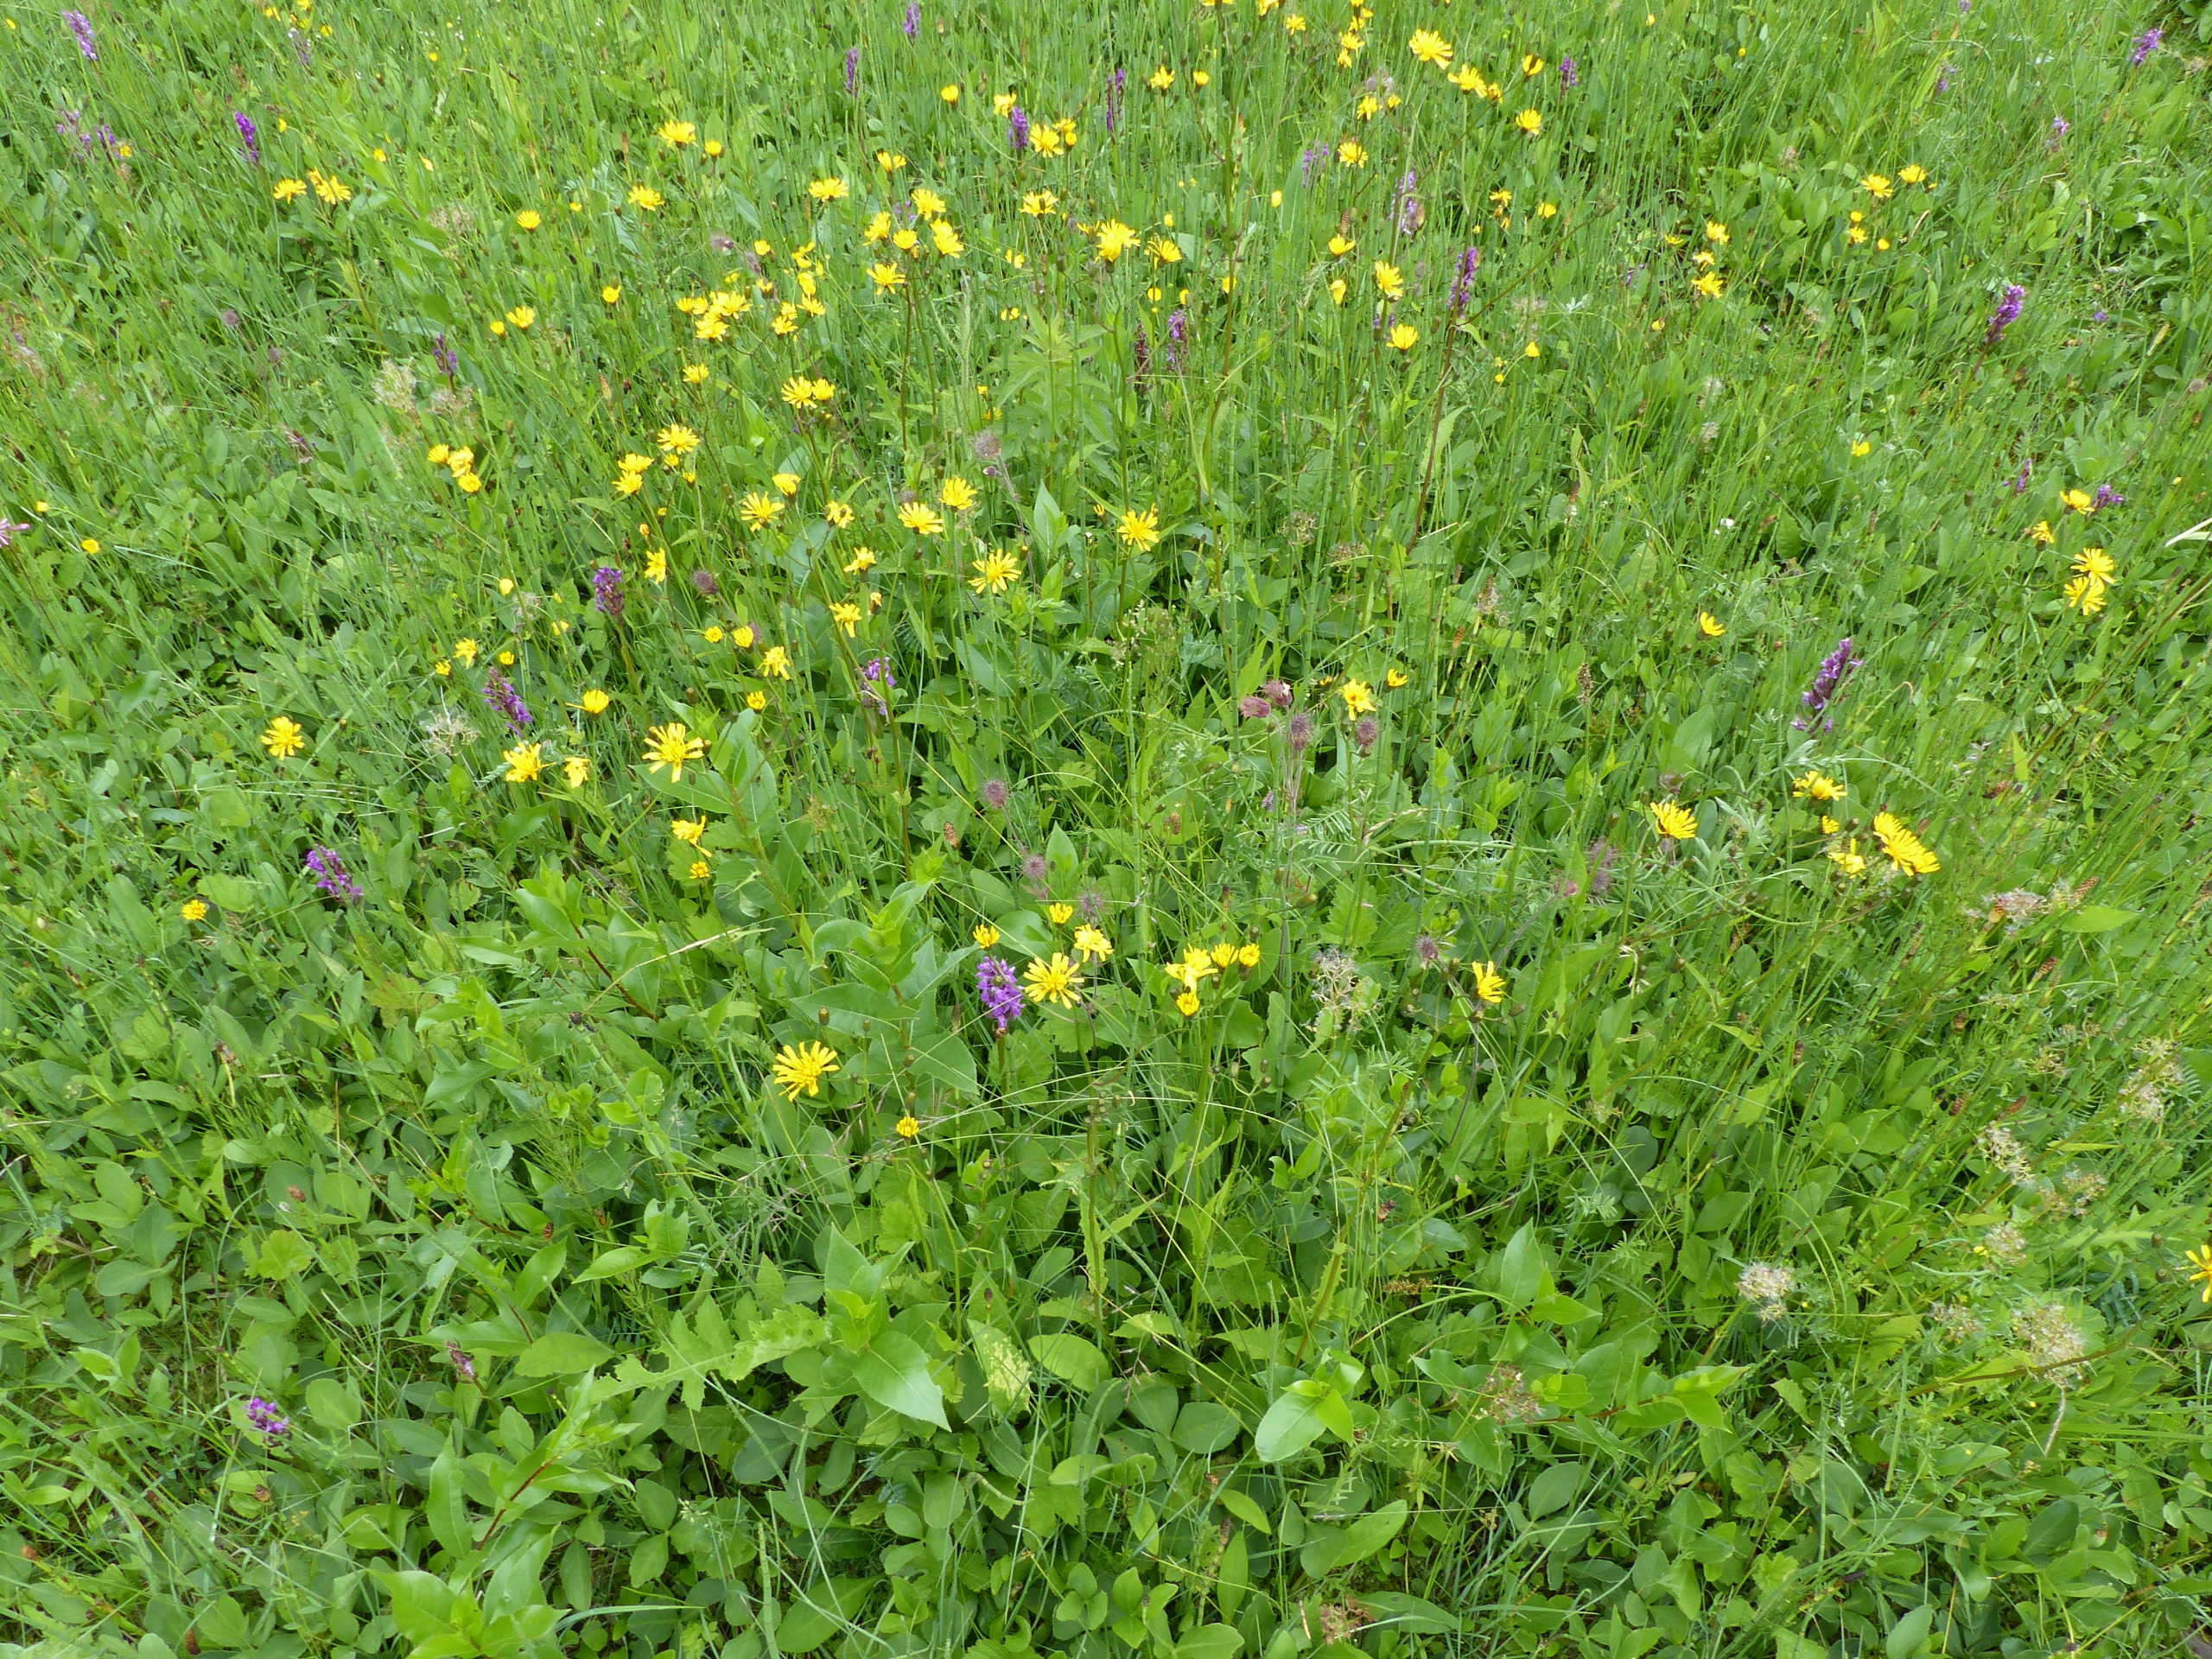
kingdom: Plantae
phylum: Tracheophyta
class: Magnoliopsida
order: Asterales
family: Asteraceae
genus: Crepis
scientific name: Crepis paludosa
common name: Kær-høgeskæg
